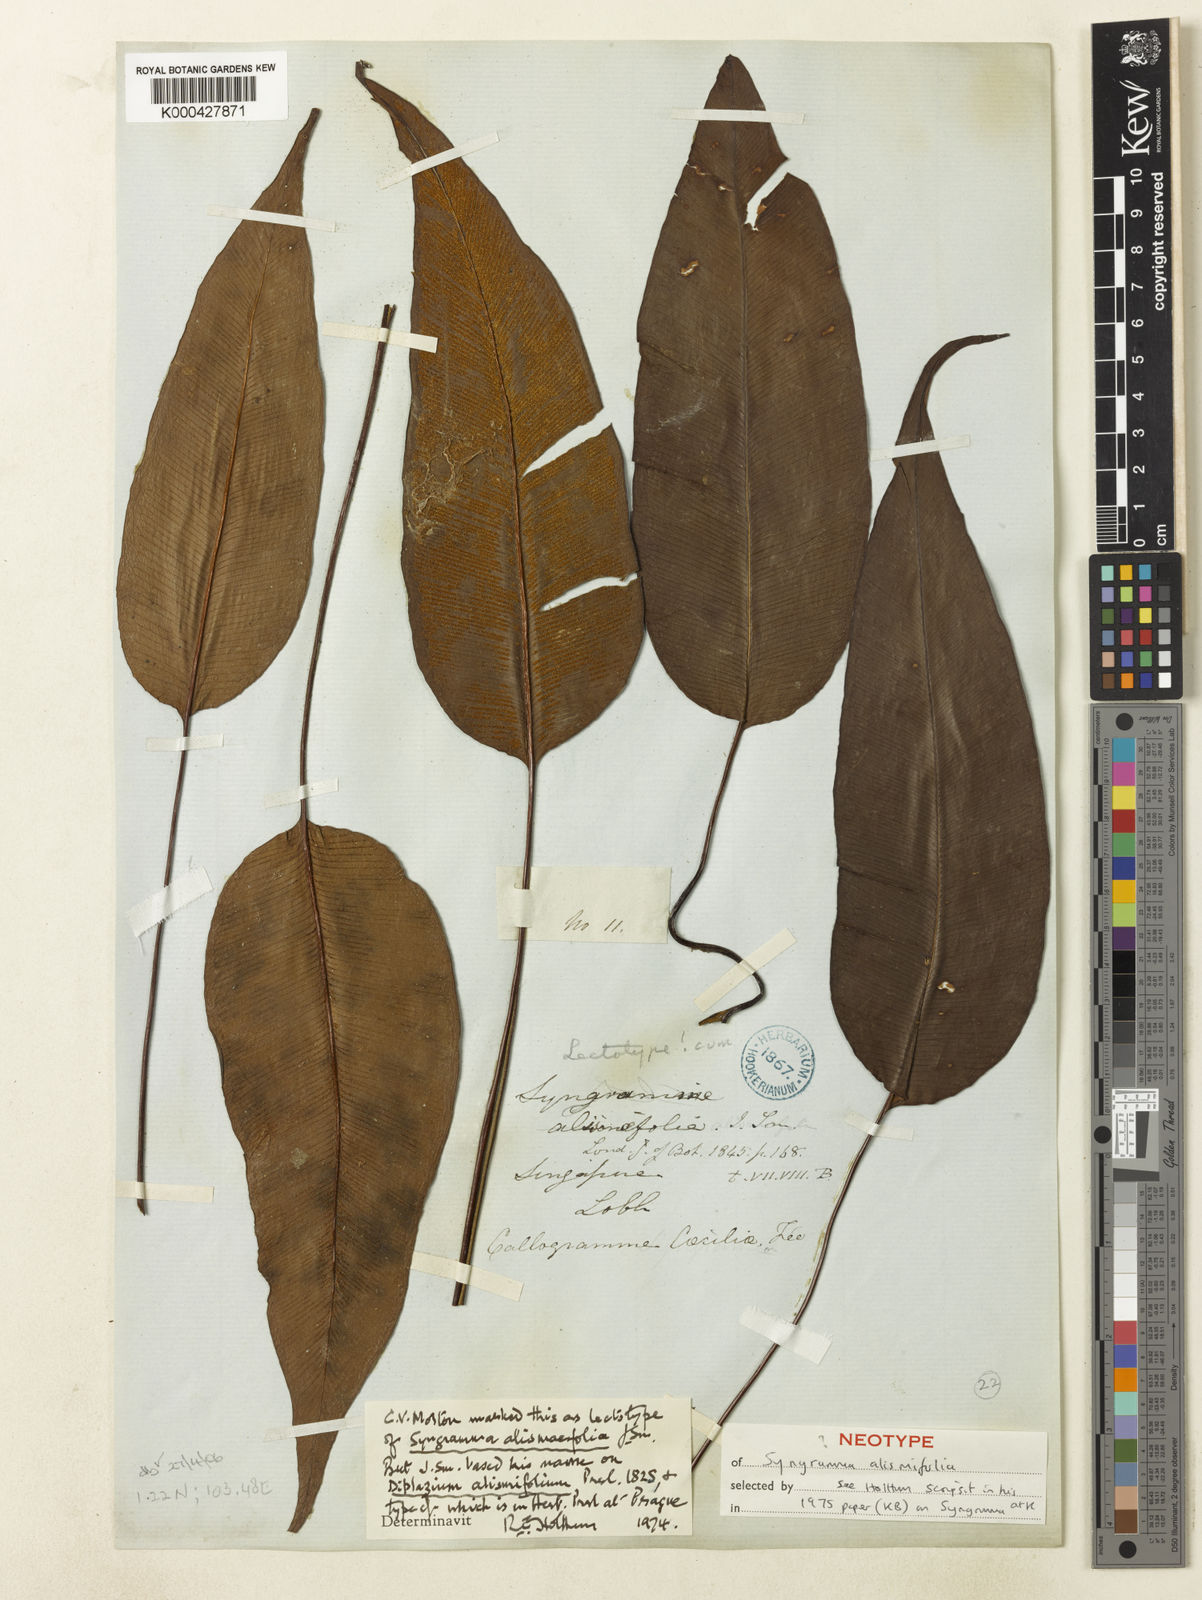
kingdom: Plantae
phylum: Tracheophyta
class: Polypodiopsida
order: Polypodiales
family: Pteridaceae
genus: Syngramma
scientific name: Syngramma alismifolia
